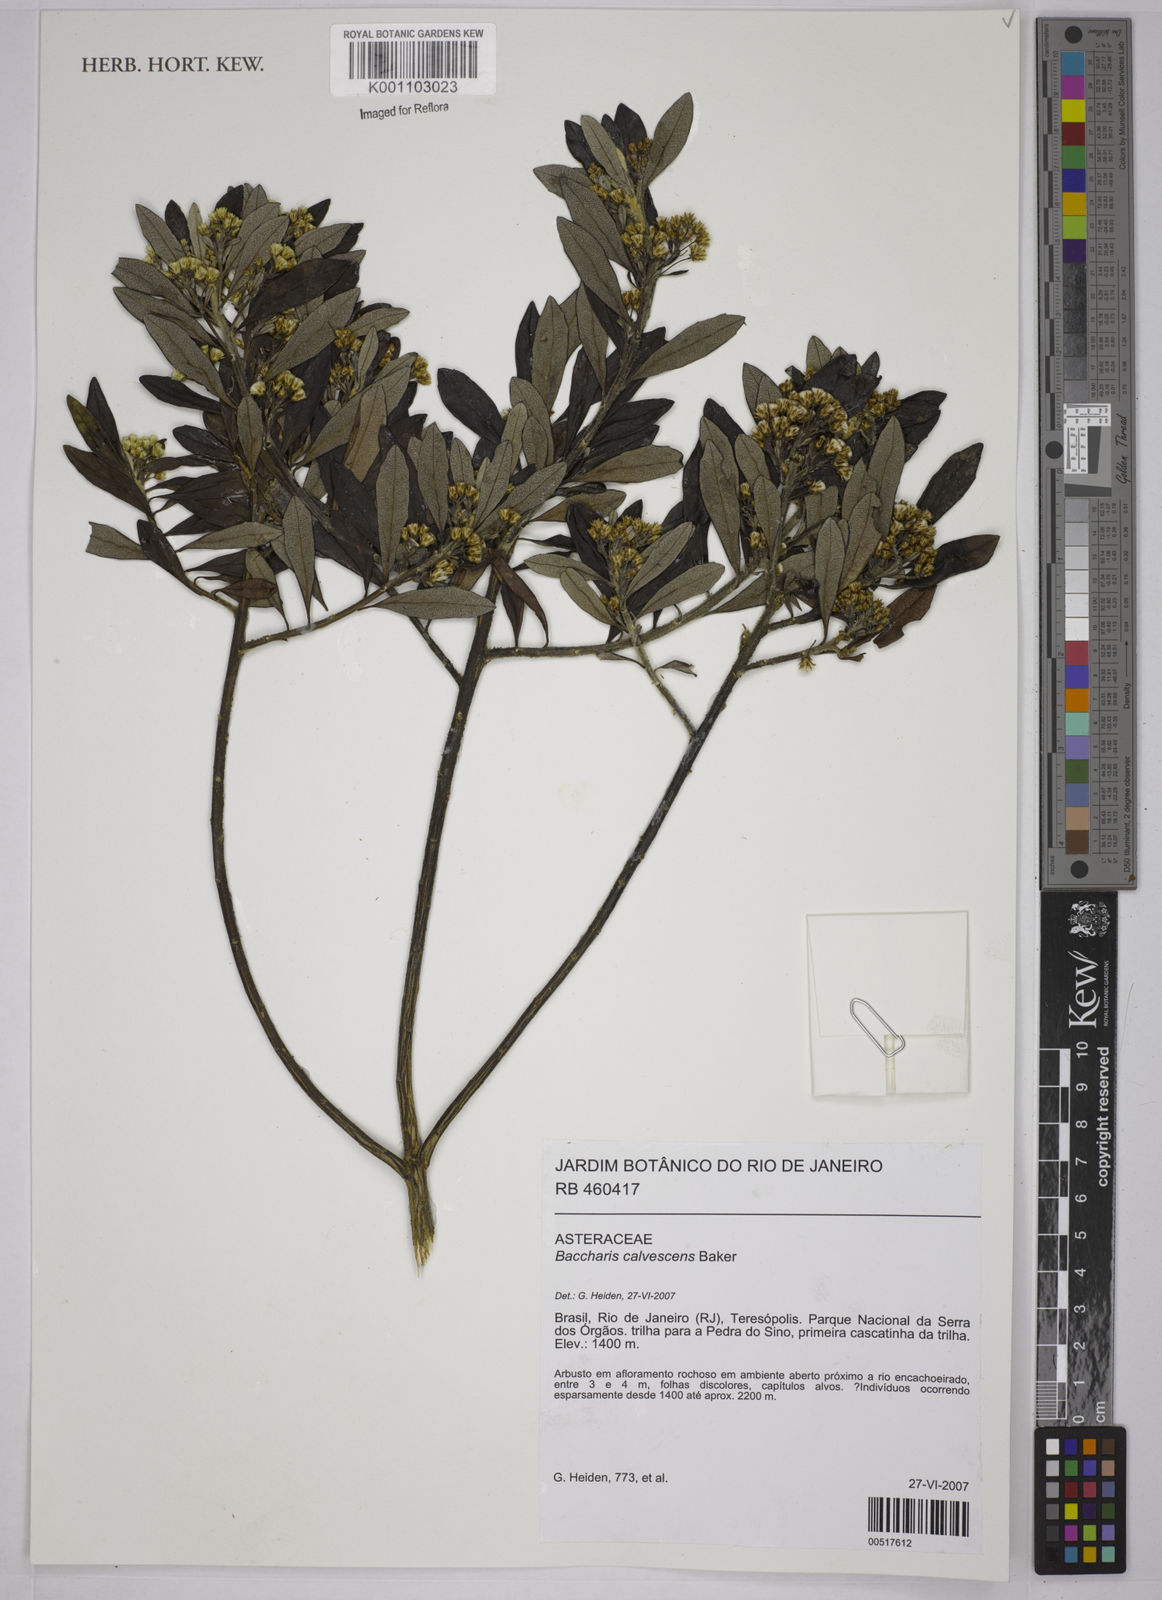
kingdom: Plantae
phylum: Tracheophyta
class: Magnoliopsida
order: Asterales
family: Asteraceae
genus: Baccharis
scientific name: Baccharis calvescens
